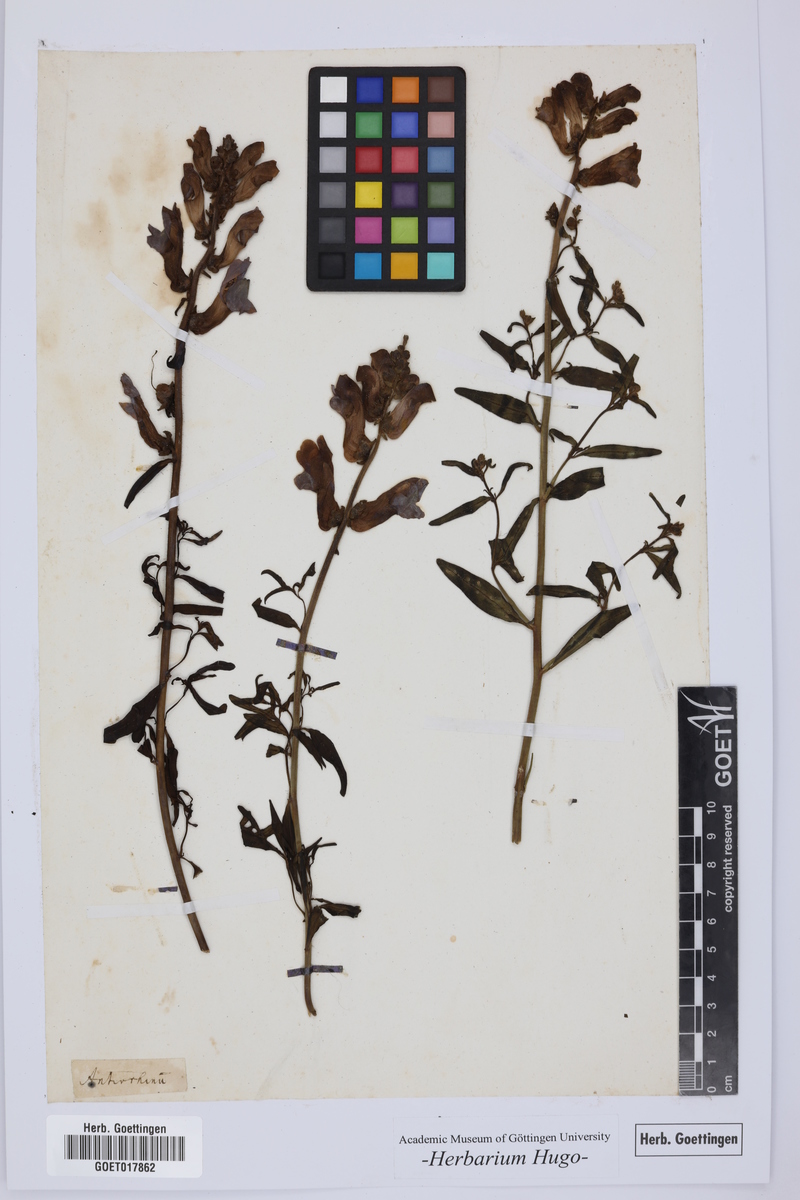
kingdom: Plantae
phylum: Tracheophyta
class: Magnoliopsida
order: Lamiales
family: Plantaginaceae
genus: Antirrhinum
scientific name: Antirrhinum
